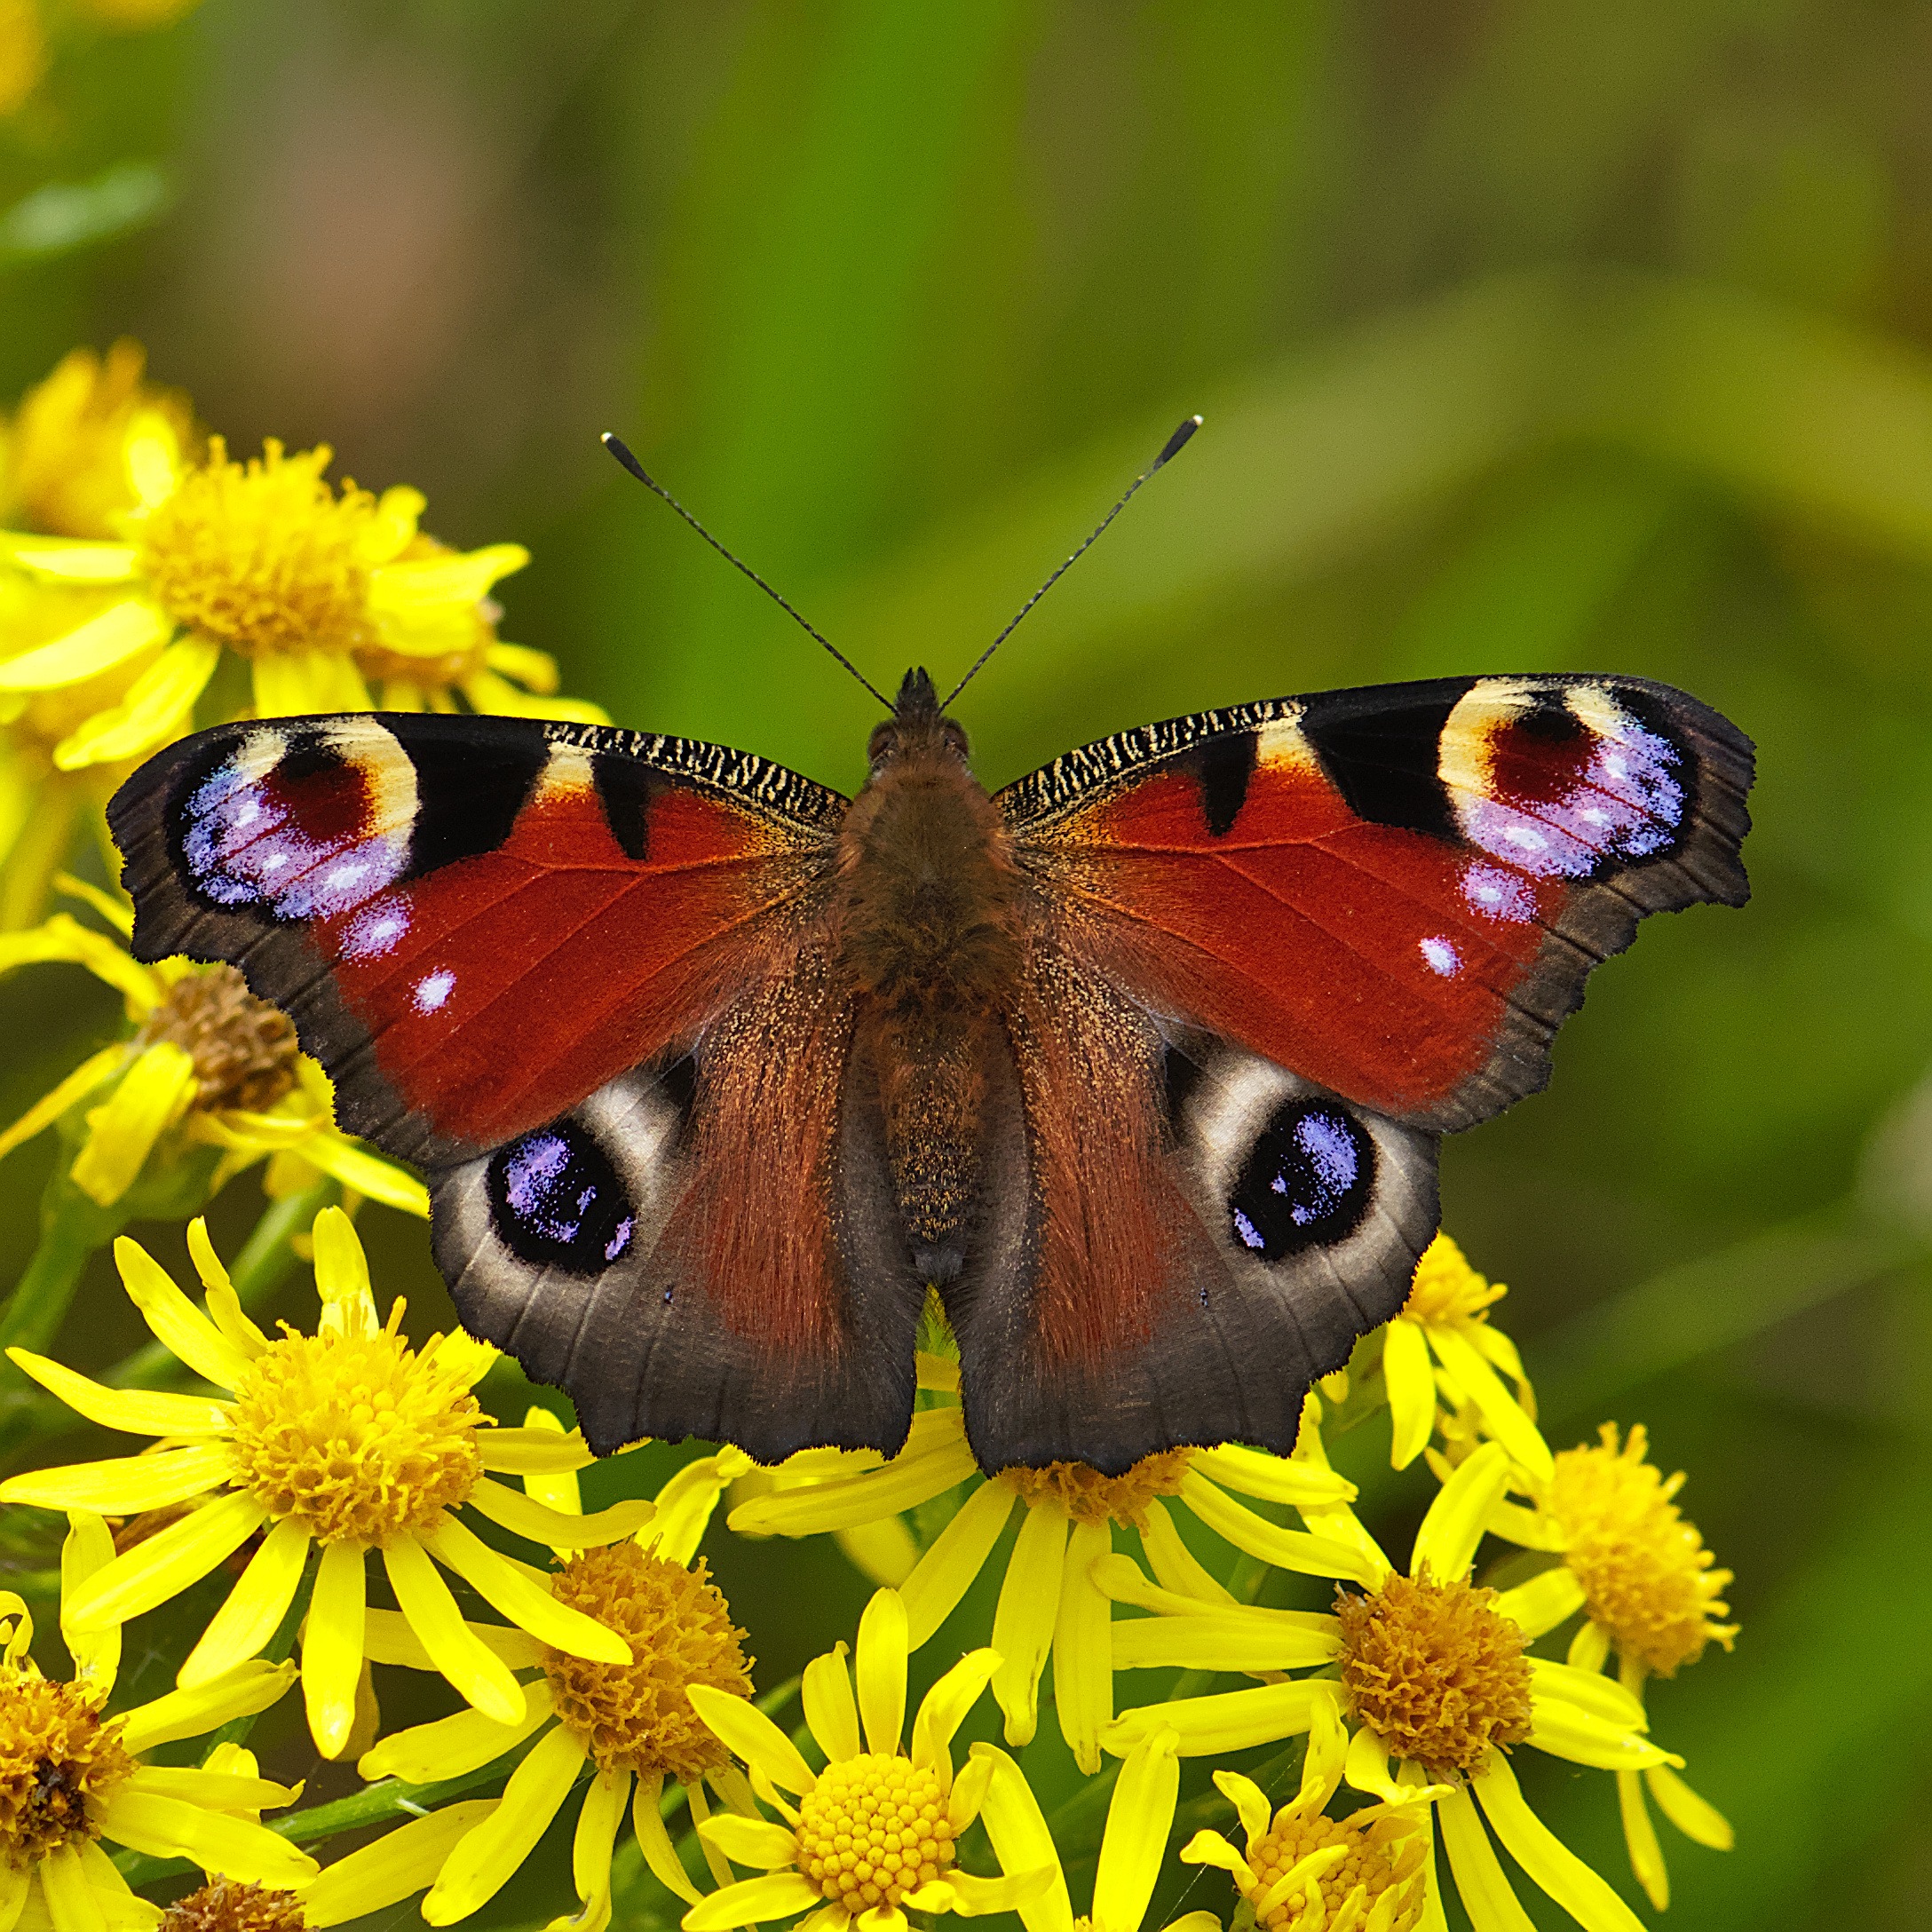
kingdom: Animalia
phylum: Arthropoda
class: Insecta
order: Lepidoptera
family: Nymphalidae
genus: Aglais
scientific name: Aglais io
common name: Dagpåfugleøje
